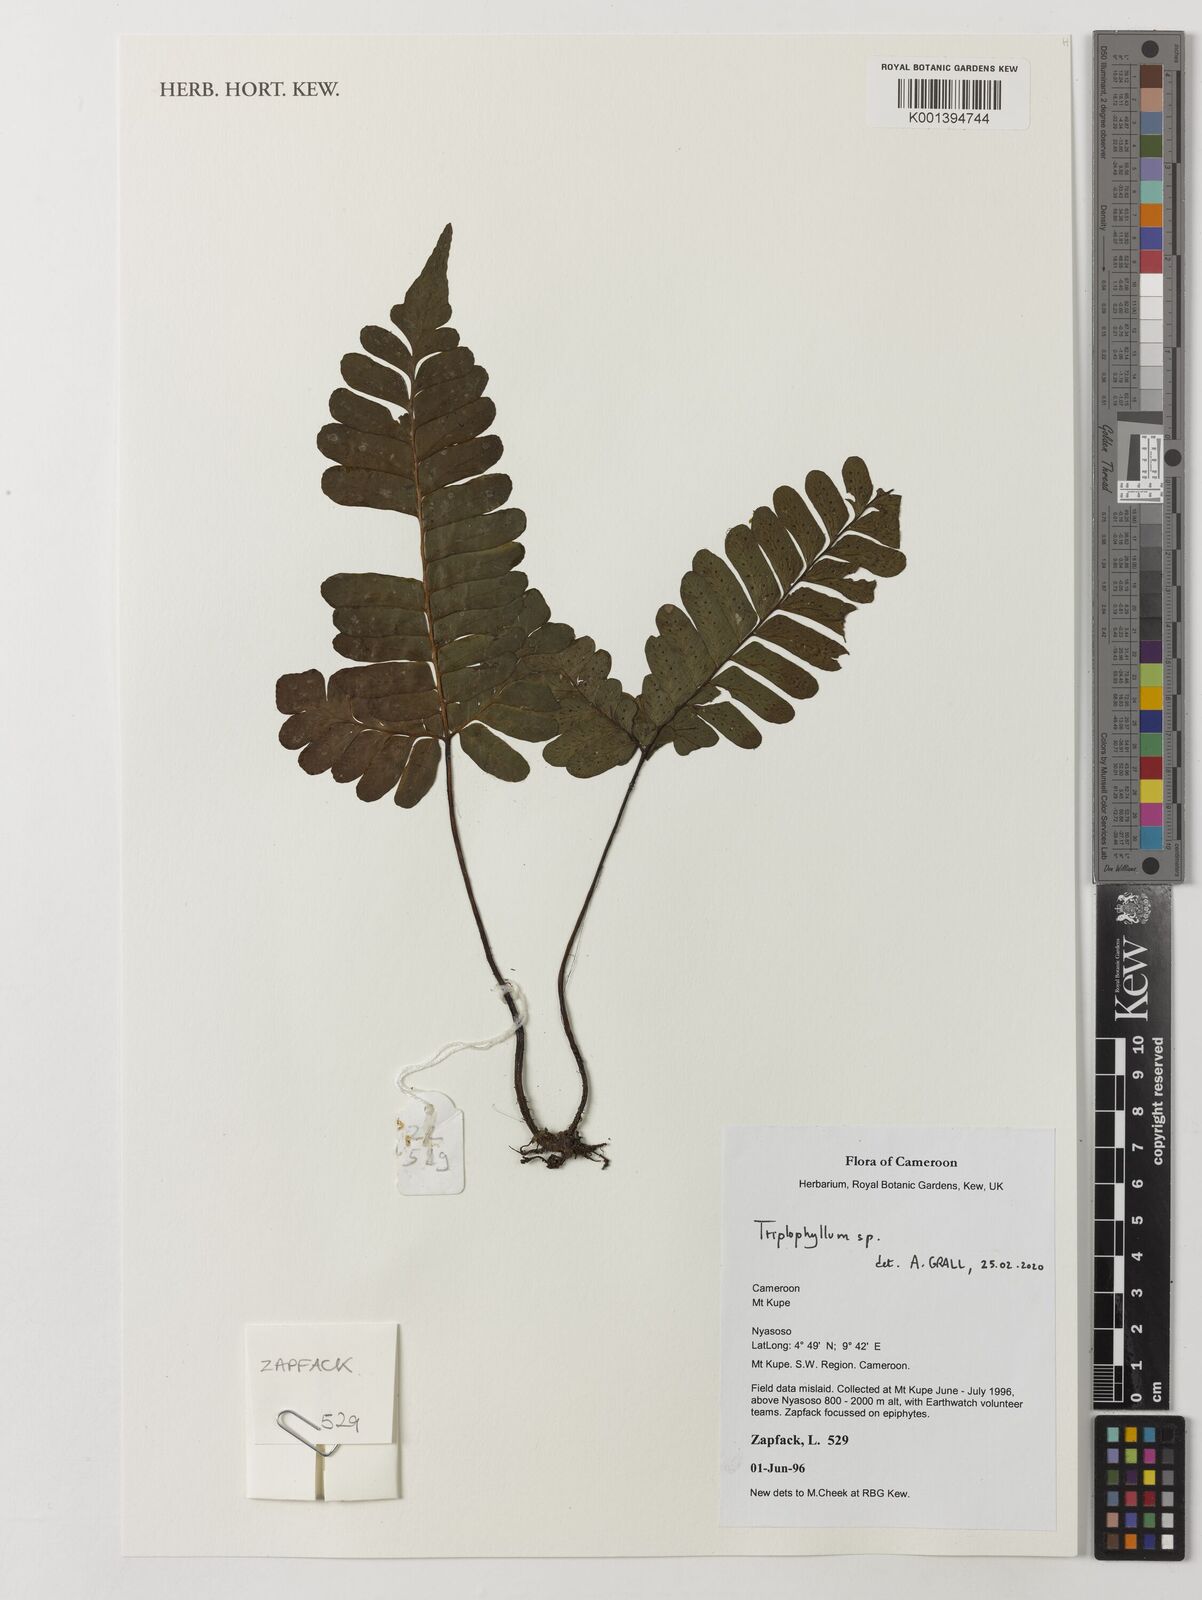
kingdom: Plantae
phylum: Tracheophyta
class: Polypodiopsida
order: Polypodiales
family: Tectariaceae
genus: Triplophyllum
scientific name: Triplophyllum
